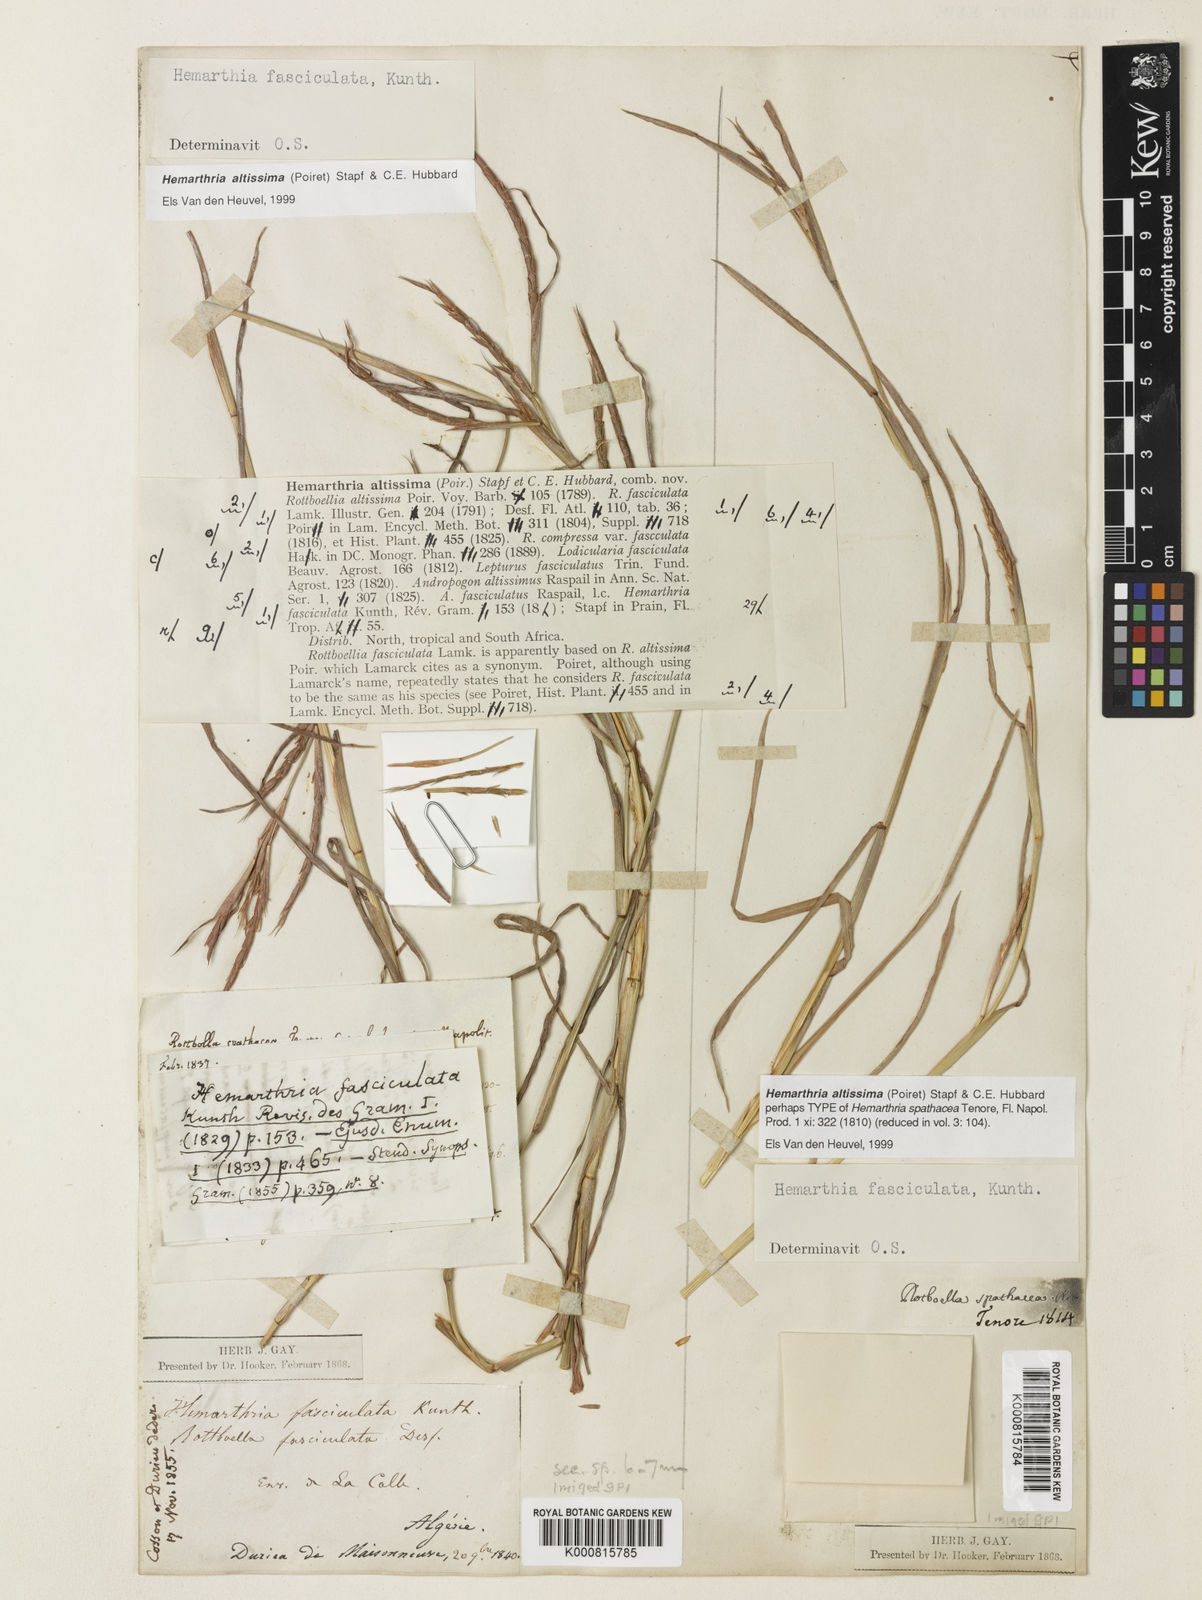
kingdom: Plantae
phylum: Tracheophyta
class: Liliopsida
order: Poales
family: Poaceae
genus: Hemarthria
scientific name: Hemarthria altissima
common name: African jointgrass
